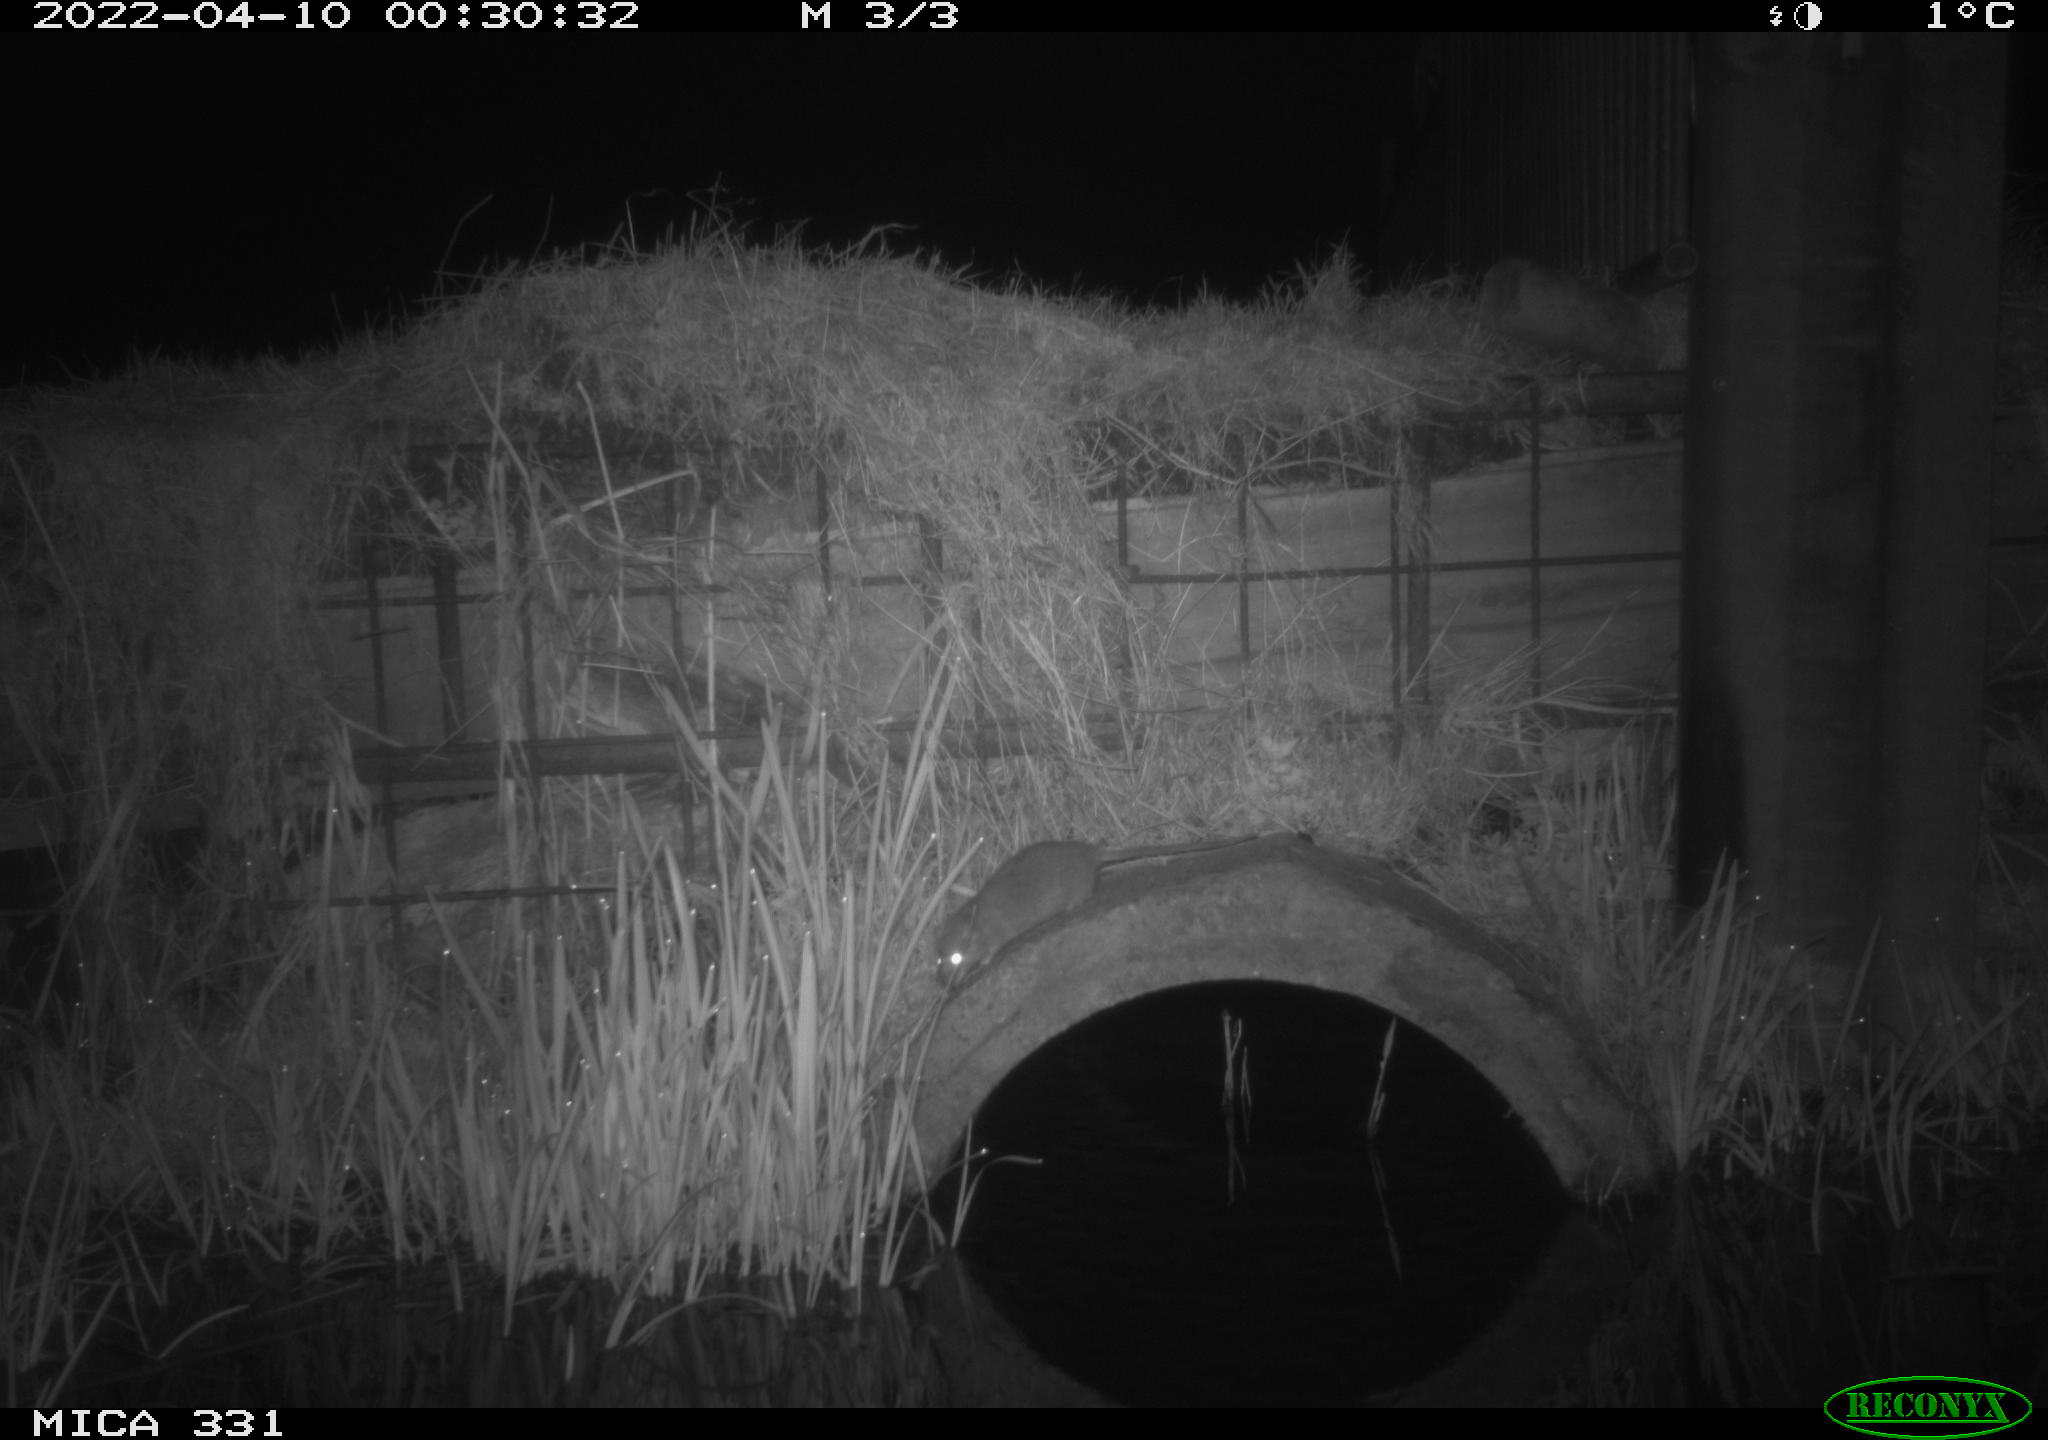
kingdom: Animalia
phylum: Chordata
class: Mammalia
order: Rodentia
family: Muridae
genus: Rattus
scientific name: Rattus norvegicus
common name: Brown rat
